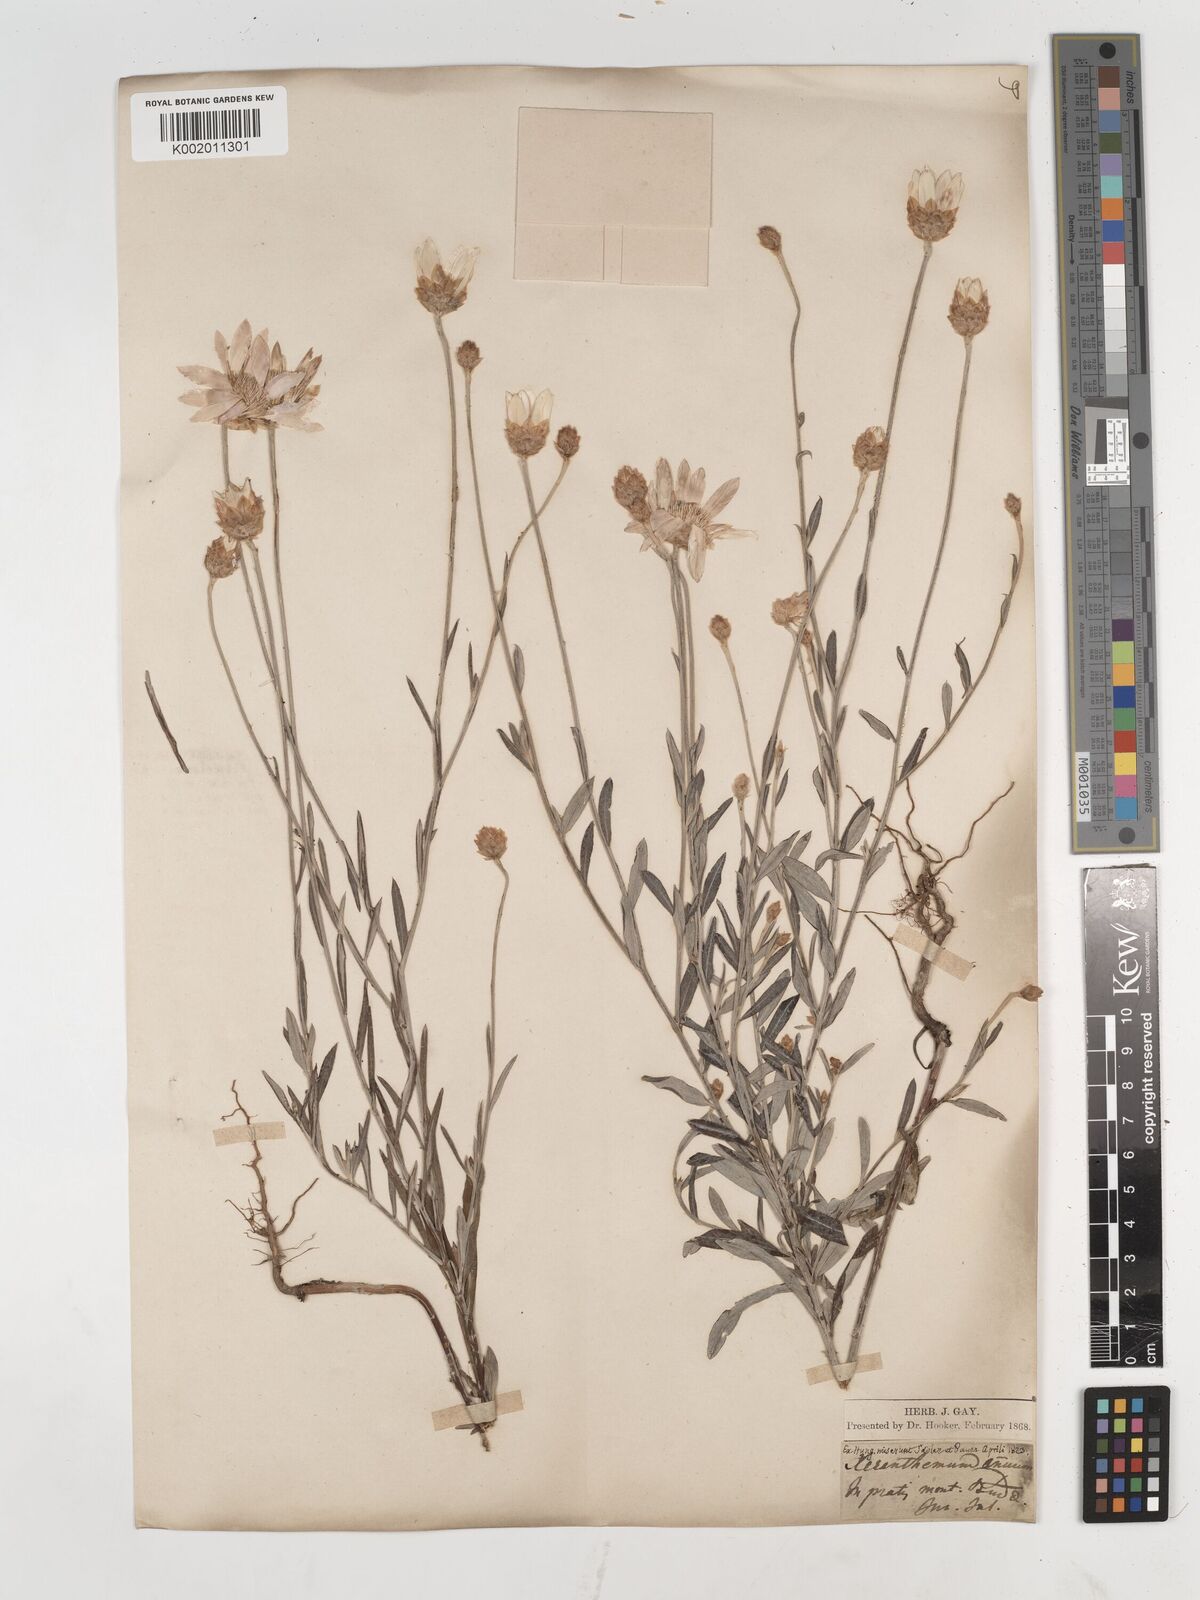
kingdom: Plantae
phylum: Tracheophyta
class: Magnoliopsida
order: Asterales
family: Asteraceae
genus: Xeranthemum
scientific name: Xeranthemum annuum
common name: Immortelle
